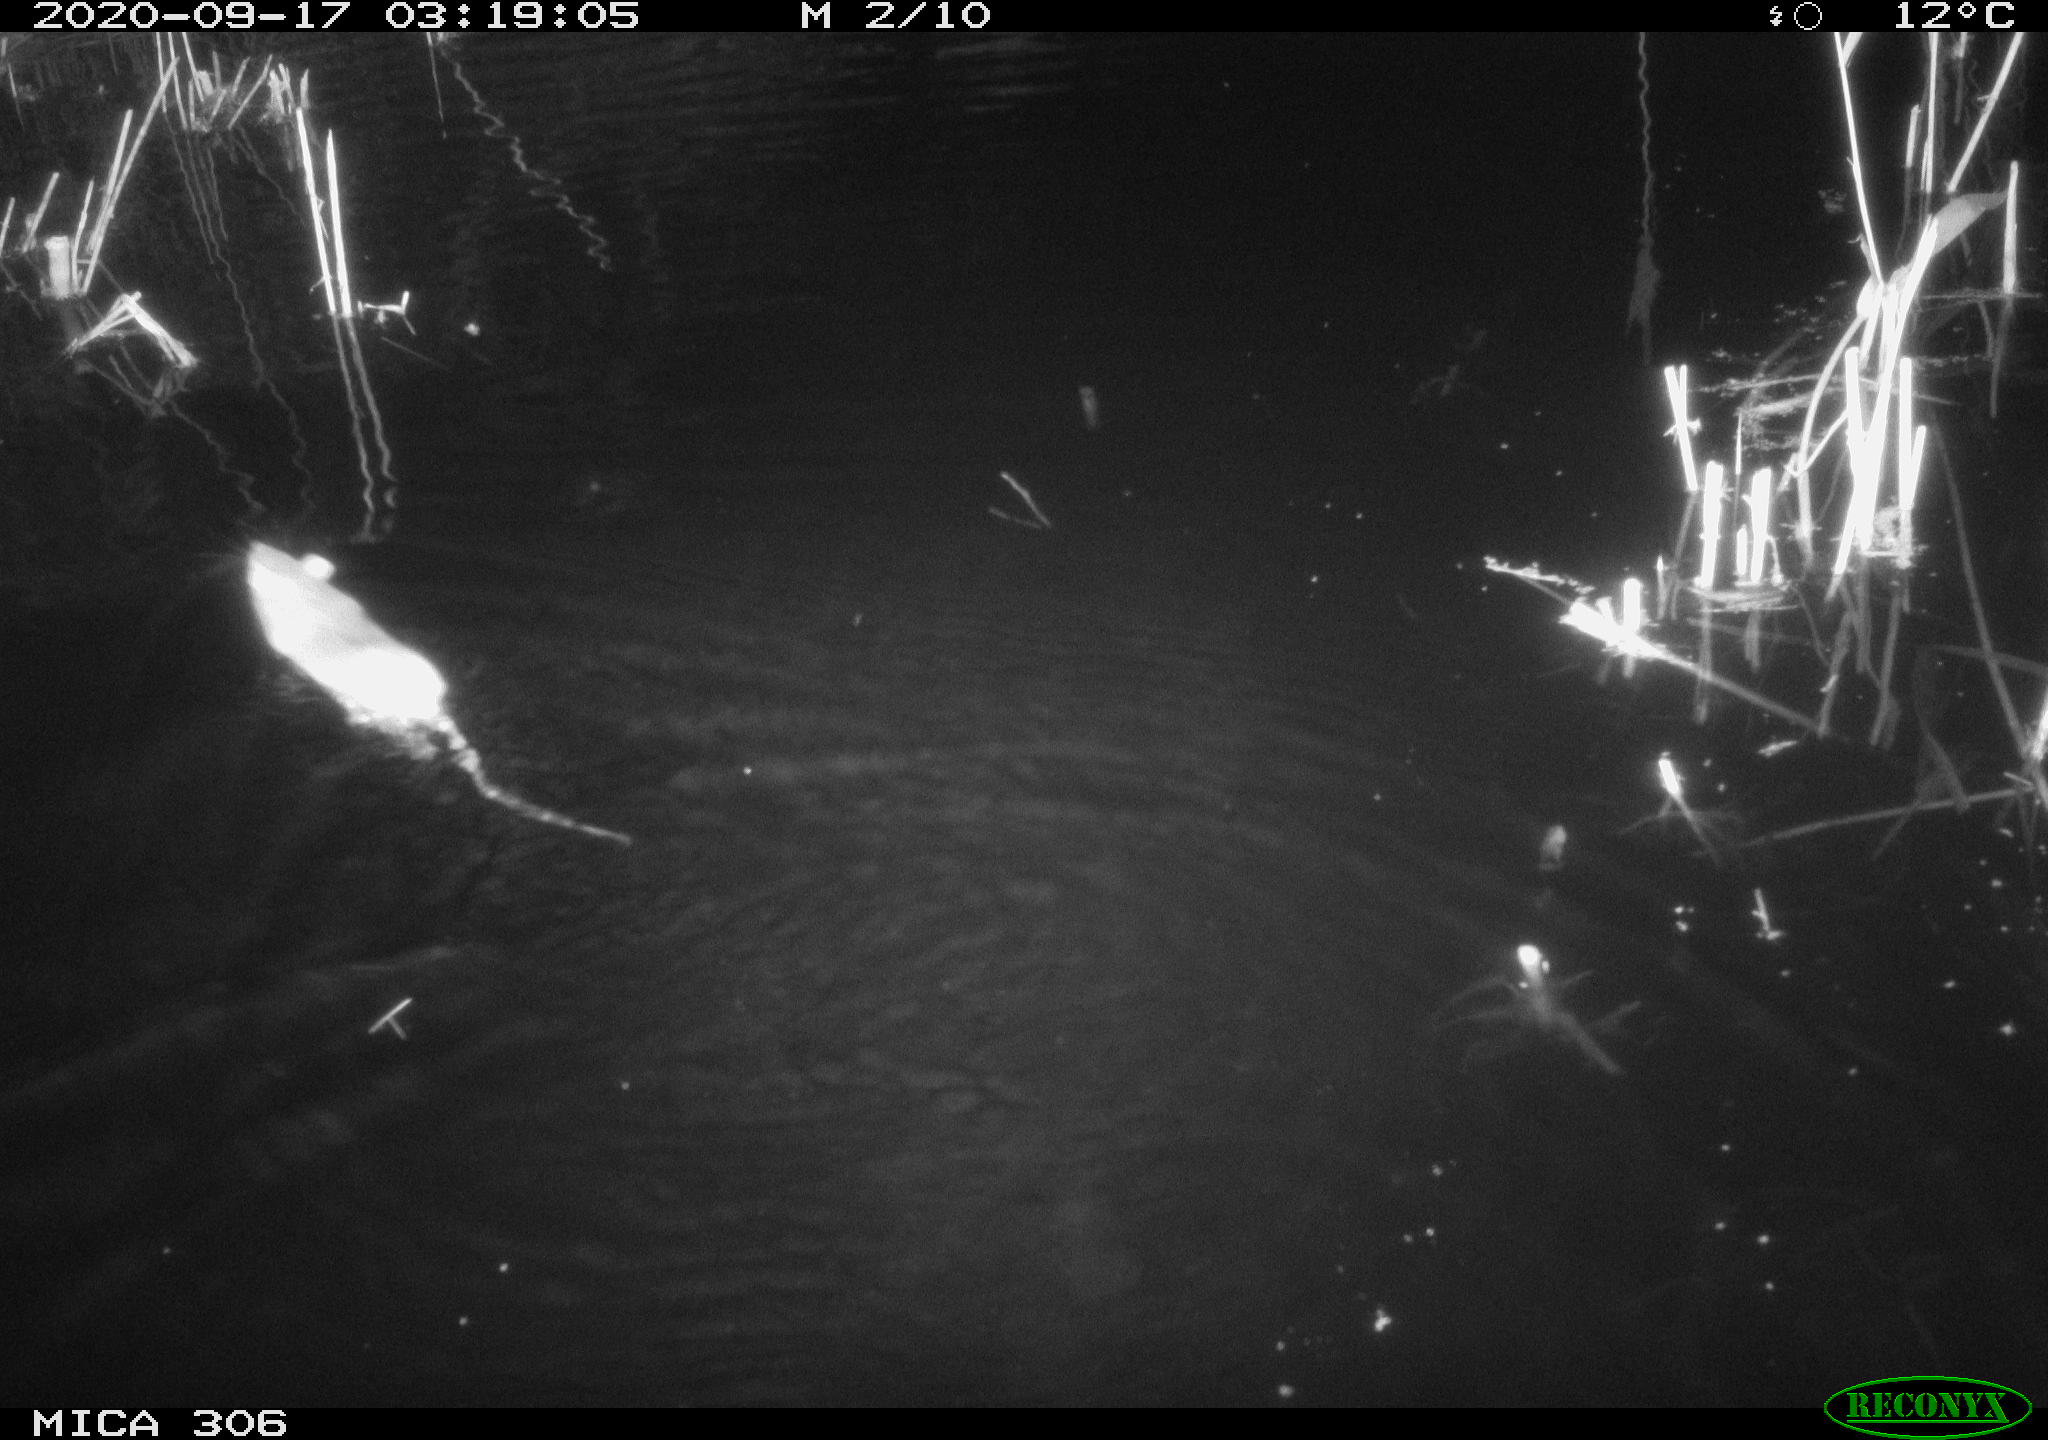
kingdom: Animalia
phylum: Chordata
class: Mammalia
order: Rodentia
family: Muridae
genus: Rattus
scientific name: Rattus norvegicus
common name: Brown rat
